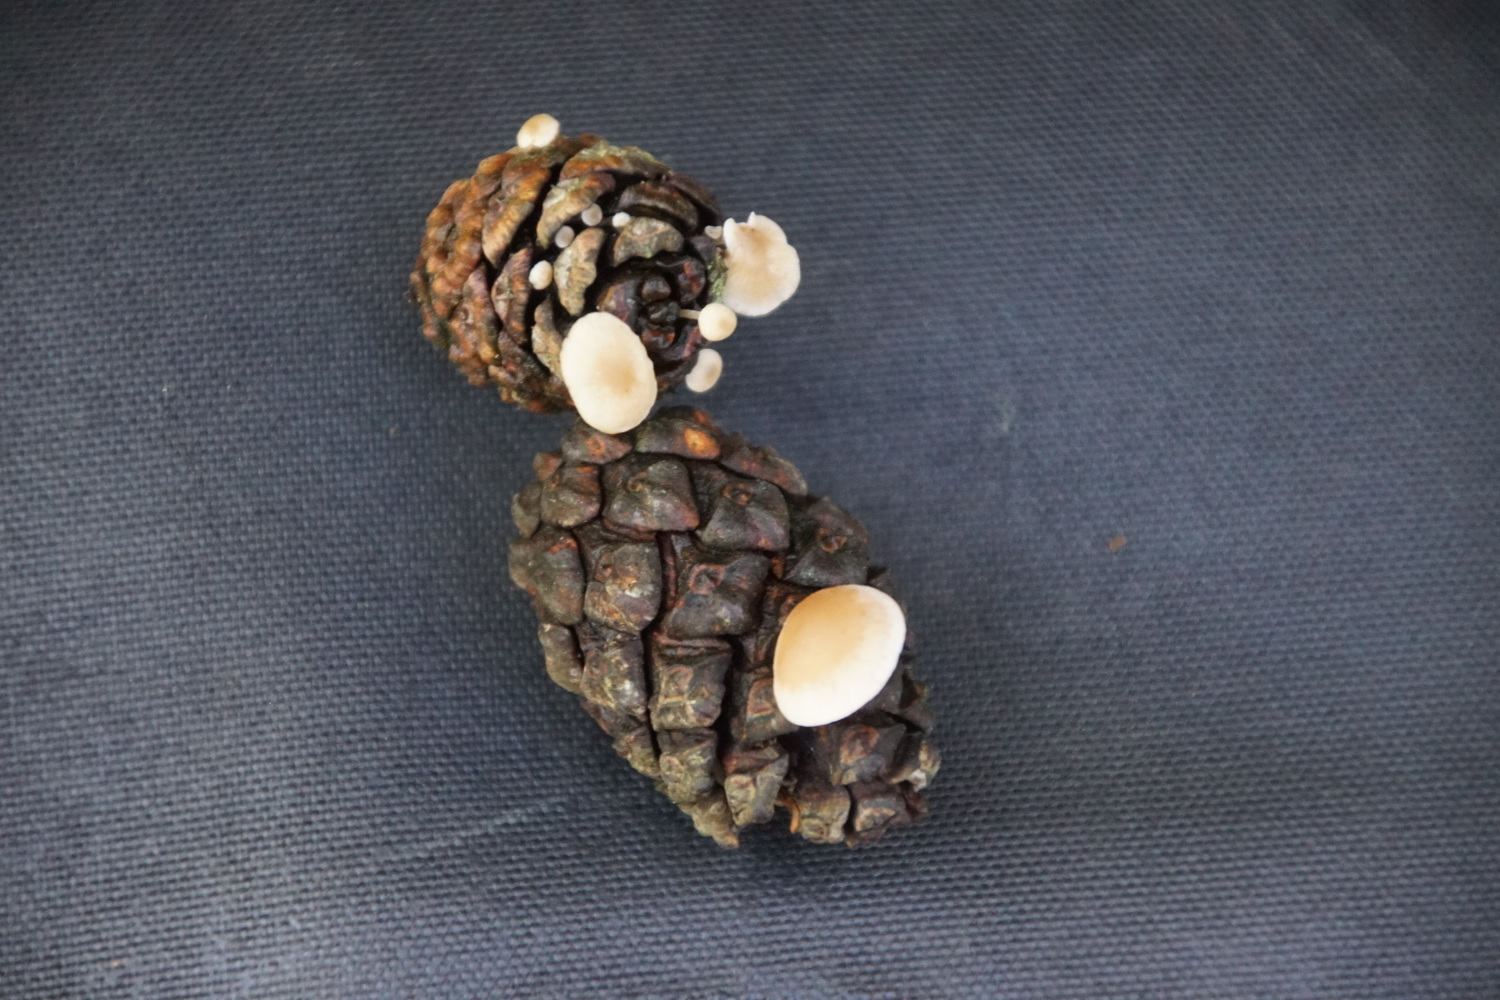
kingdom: Fungi
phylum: Basidiomycota
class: Agaricomycetes
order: Agaricales
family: Marasmiaceae
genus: Baeospora
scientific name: Baeospora myosura
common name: koglebruskhat
